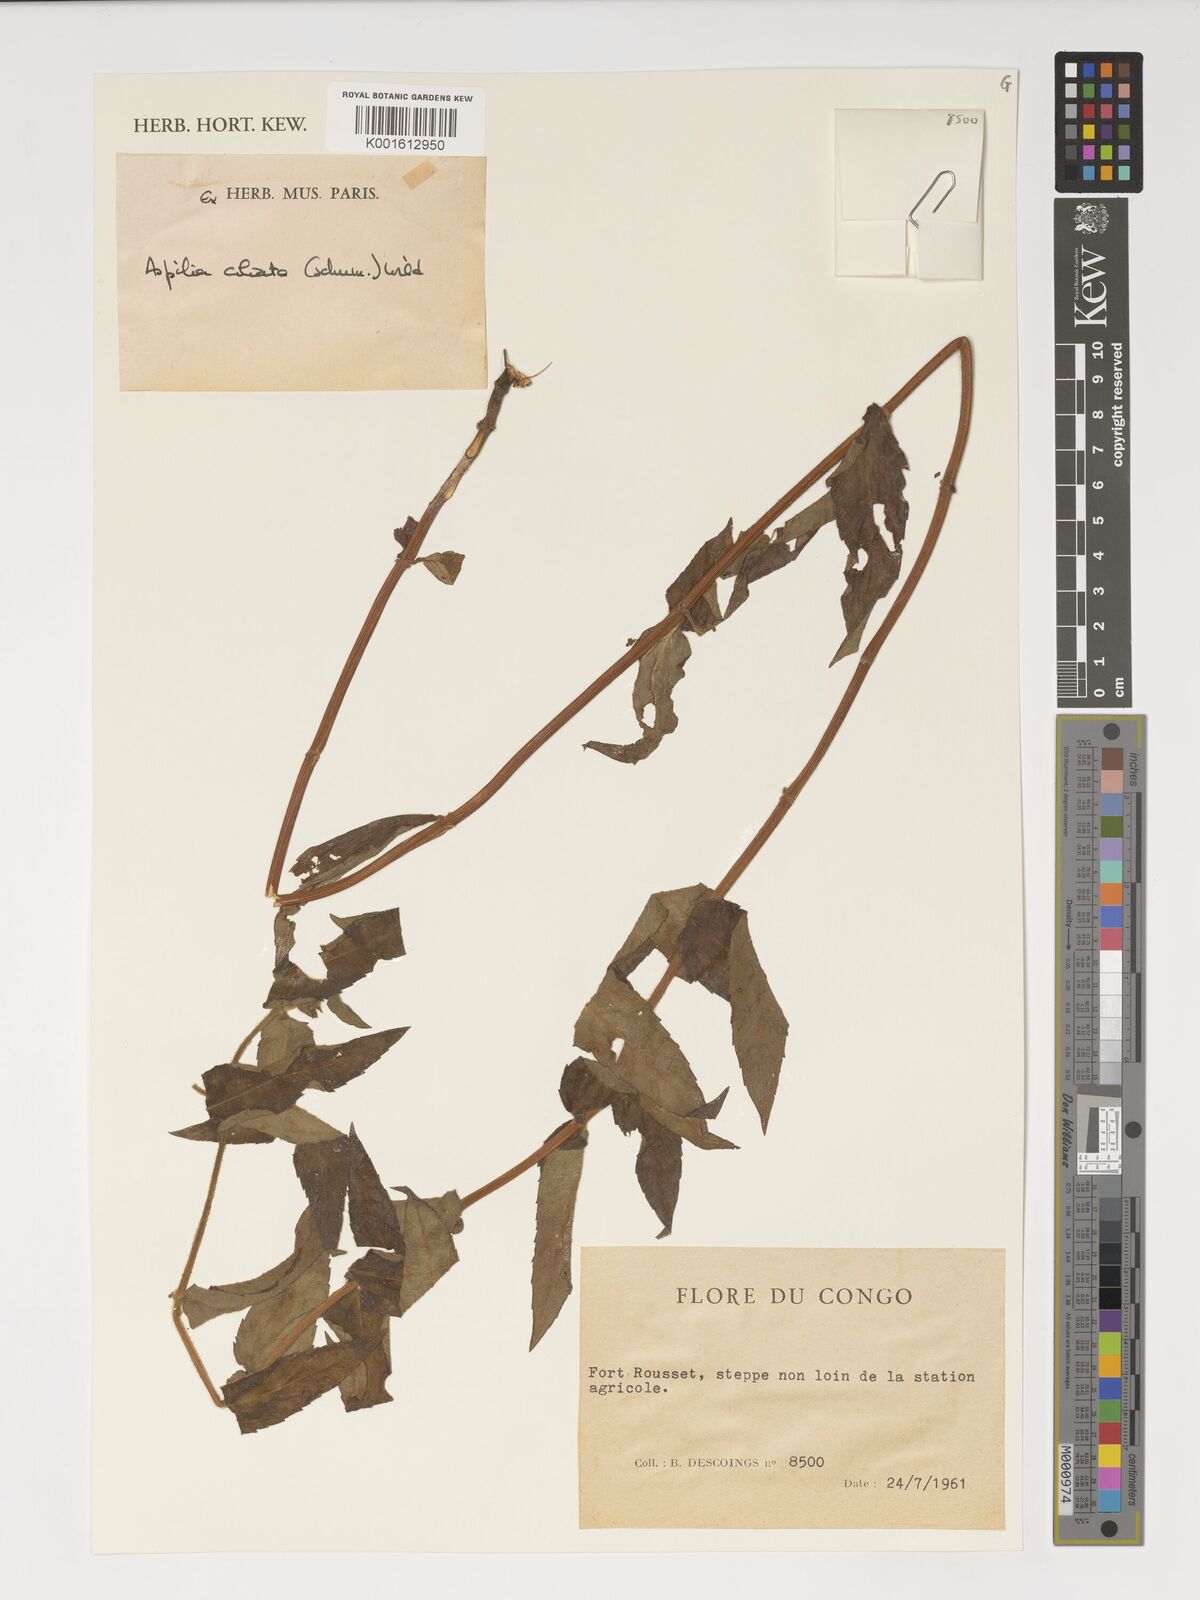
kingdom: Plantae
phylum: Tracheophyta
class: Magnoliopsida
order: Asterales
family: Asteraceae
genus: Aspilia
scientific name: Aspilia ciliata
